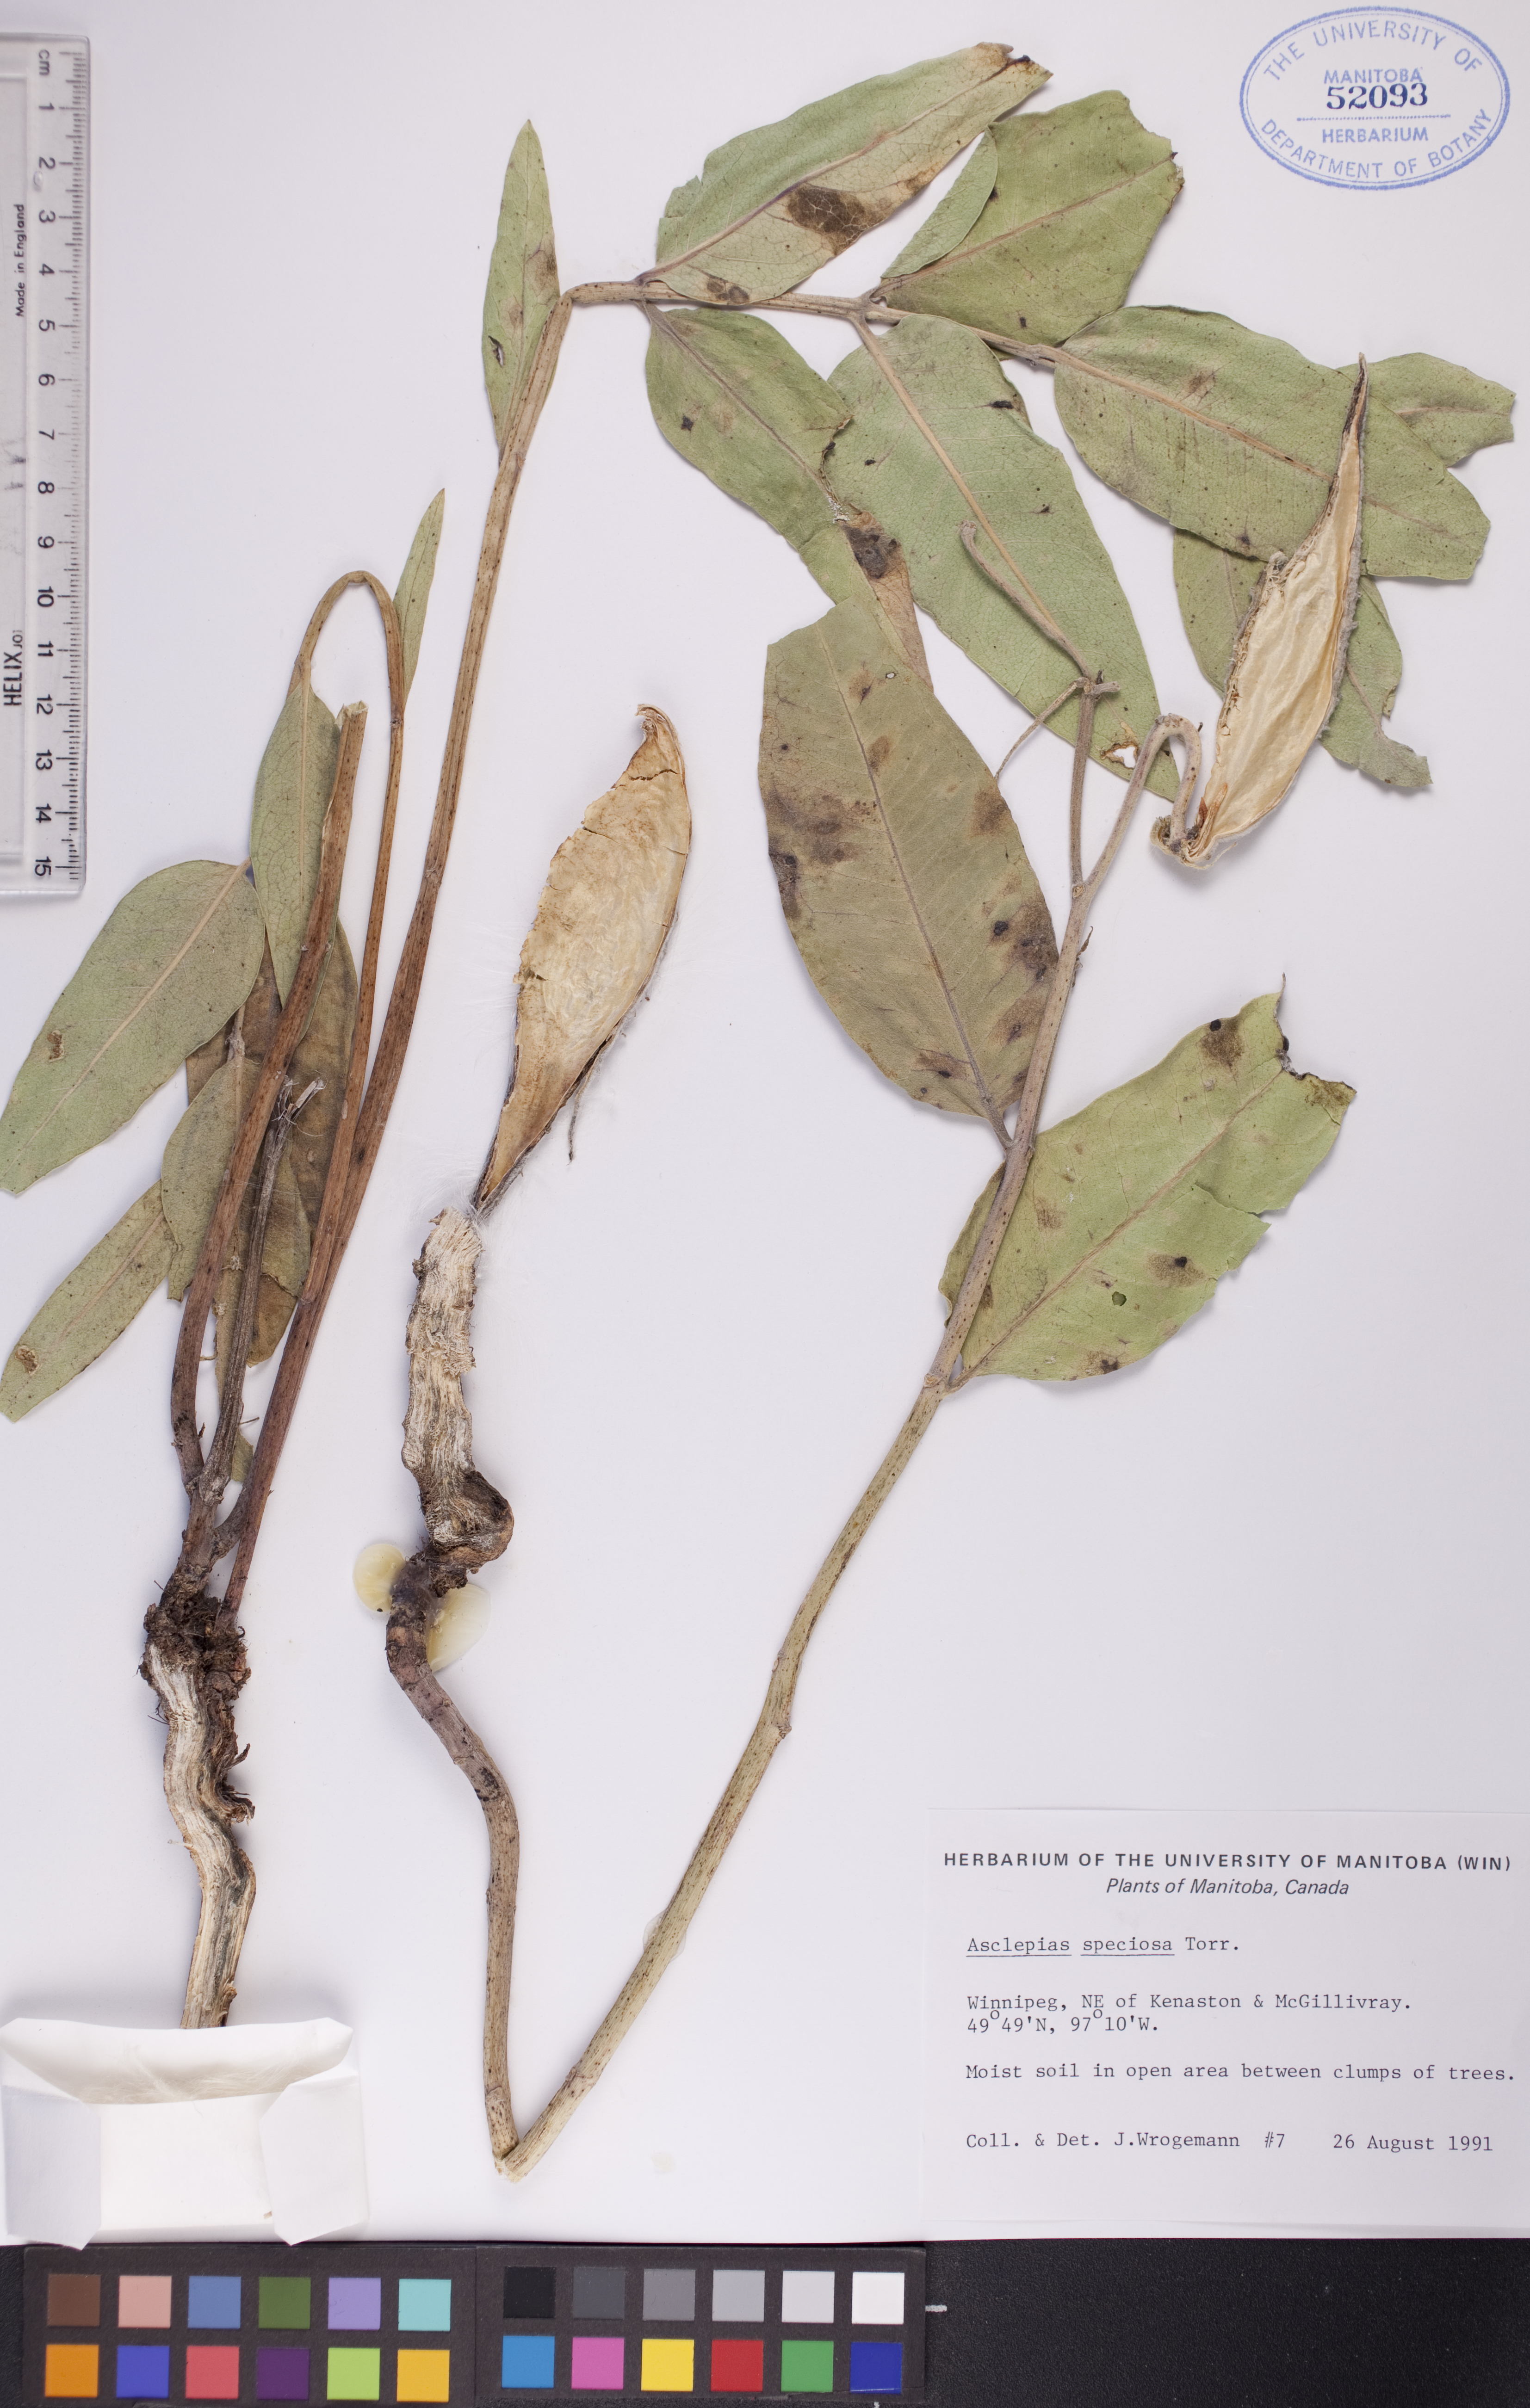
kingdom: Plantae
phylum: Tracheophyta
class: Magnoliopsida
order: Gentianales
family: Apocynaceae
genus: Asclepias
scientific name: Asclepias speciosa
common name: Showy milkweed
